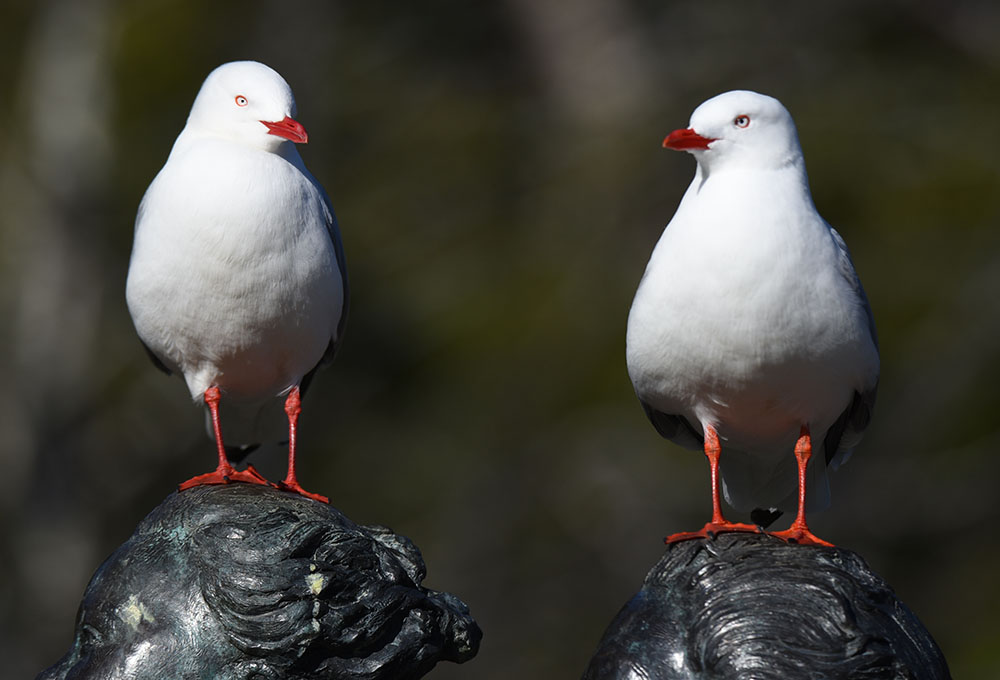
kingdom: Animalia
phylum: Chordata
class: Aves
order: Charadriiformes
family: Laridae
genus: Chroicocephalus
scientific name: Chroicocephalus novaehollandiae
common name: Silver gull
